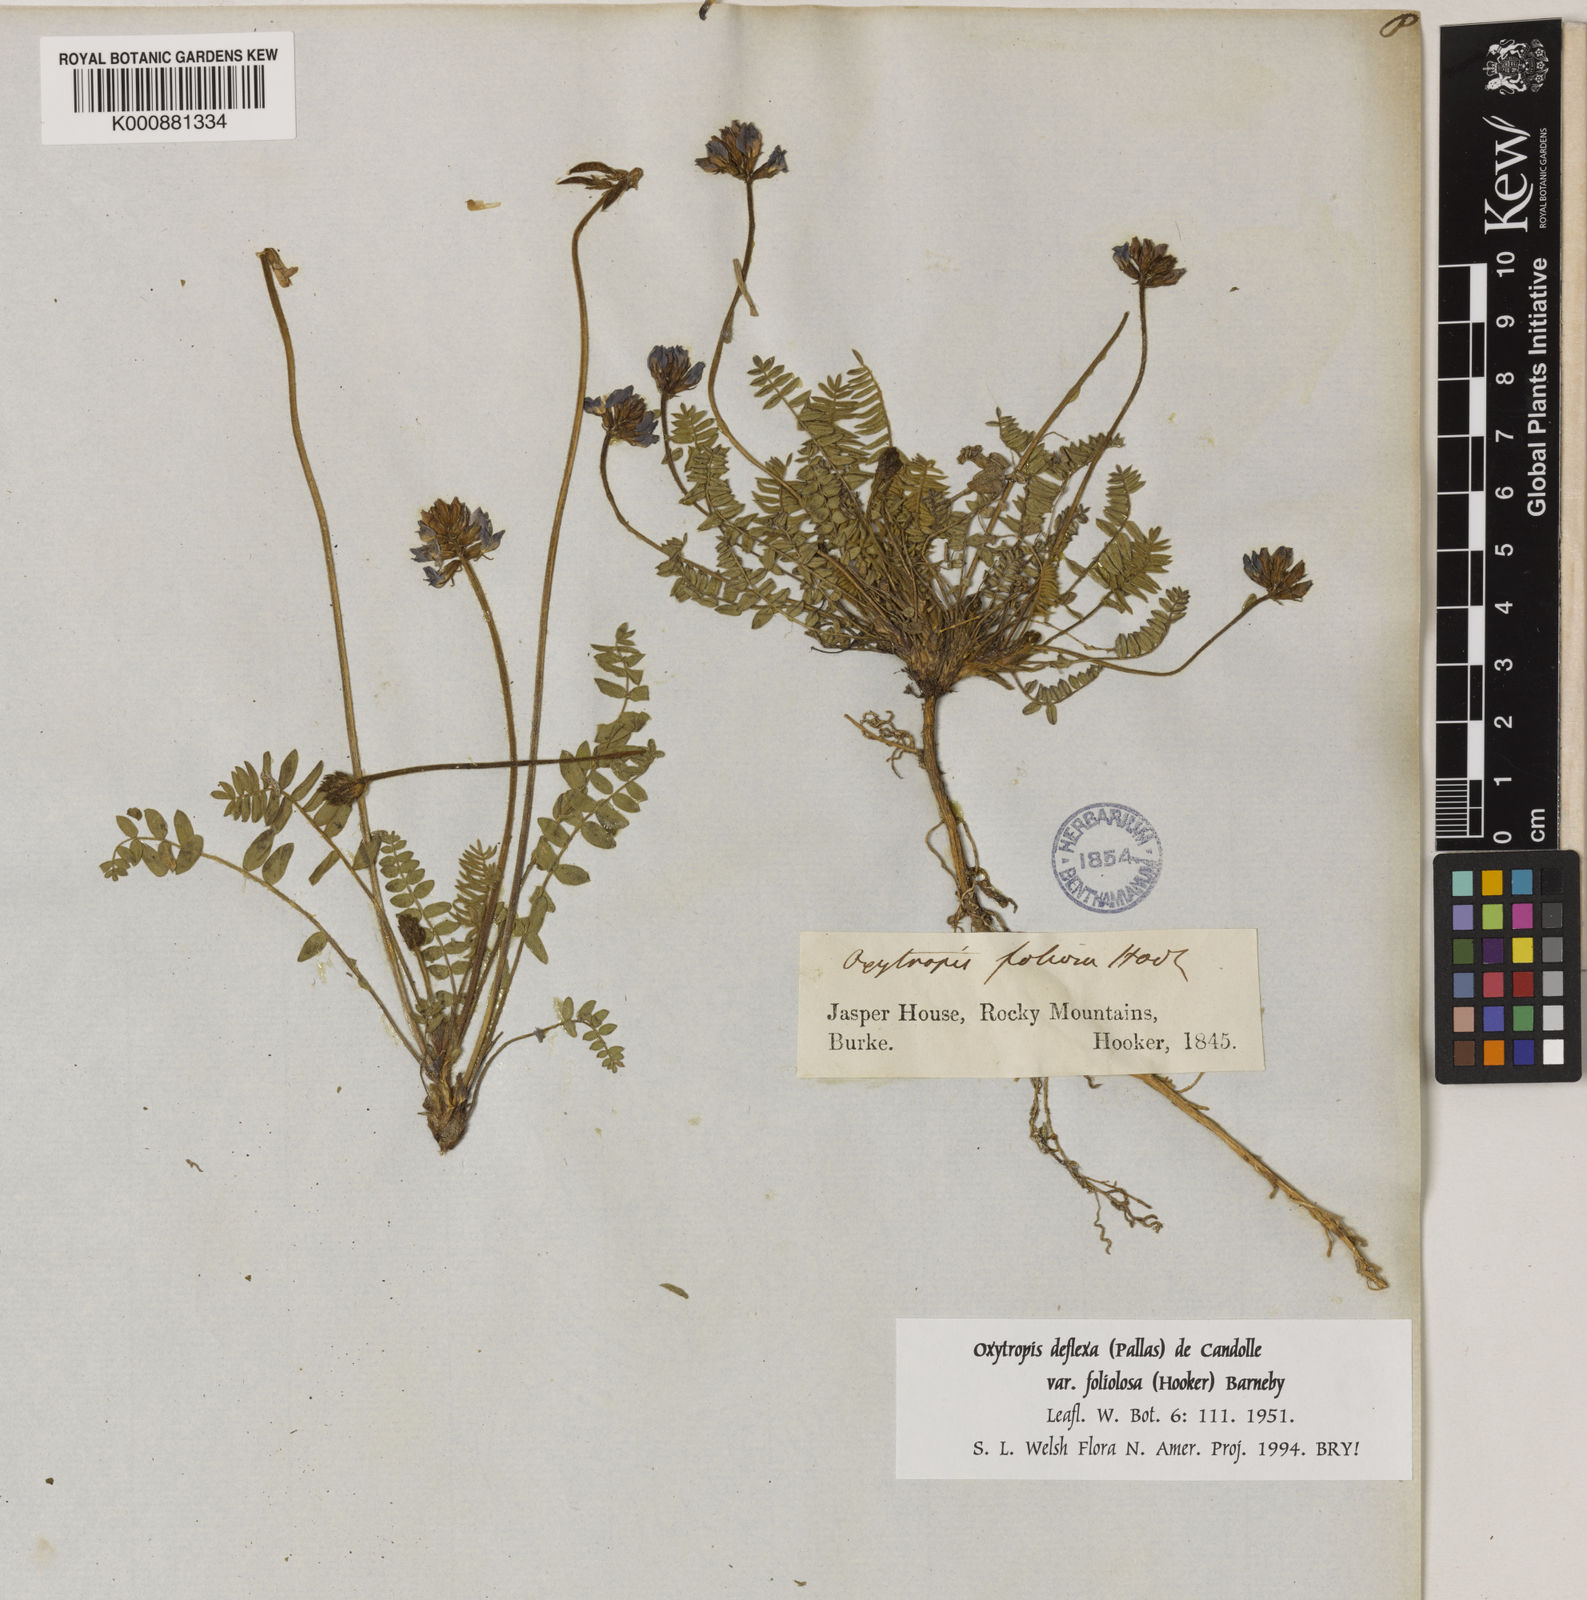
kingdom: Plantae
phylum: Tracheophyta
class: Magnoliopsida
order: Fabales
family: Fabaceae
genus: Oxytropis
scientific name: Oxytropis deflexa
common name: Stemmed oxytrope
